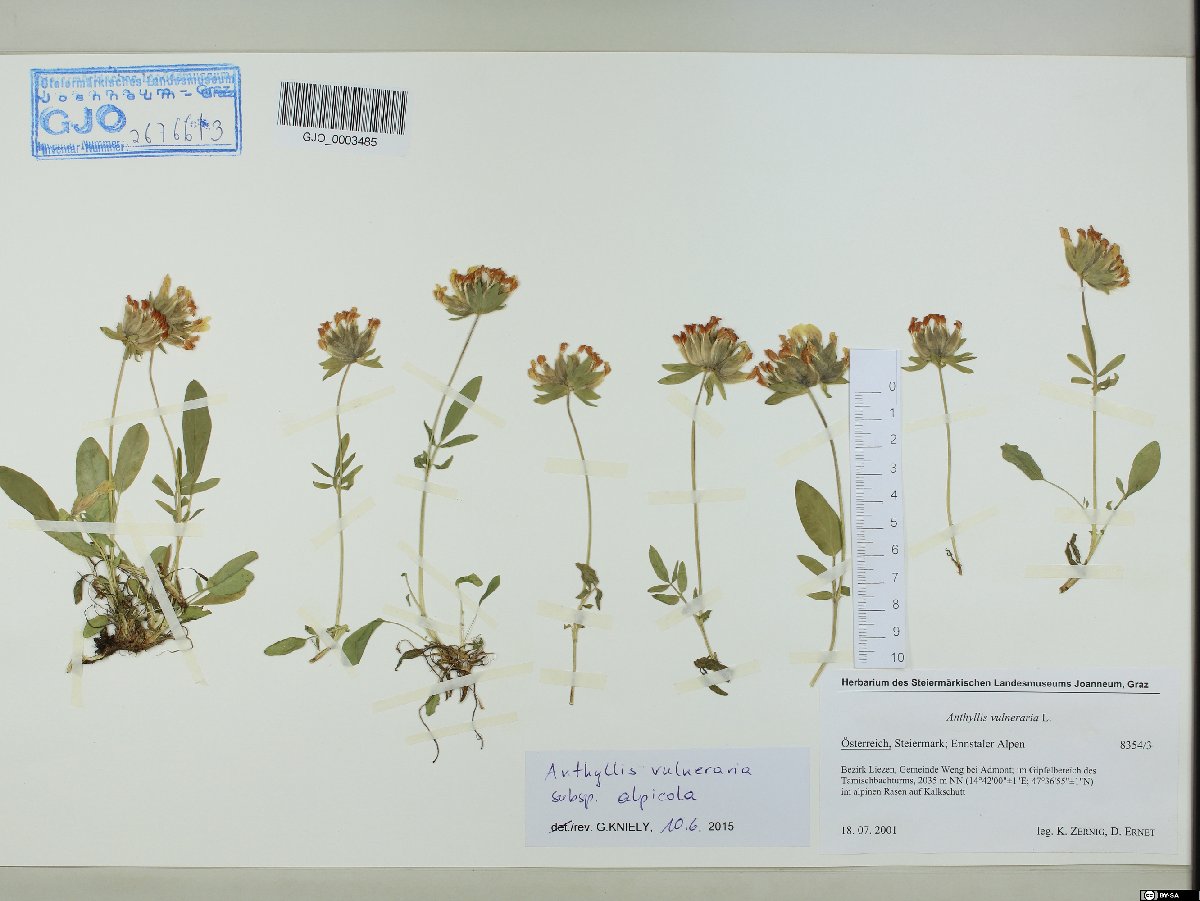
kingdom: Plantae
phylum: Tracheophyta
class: Magnoliopsida
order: Fabales
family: Fabaceae
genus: Anthyllis
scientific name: Anthyllis vulneraria
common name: Kidney vetch
